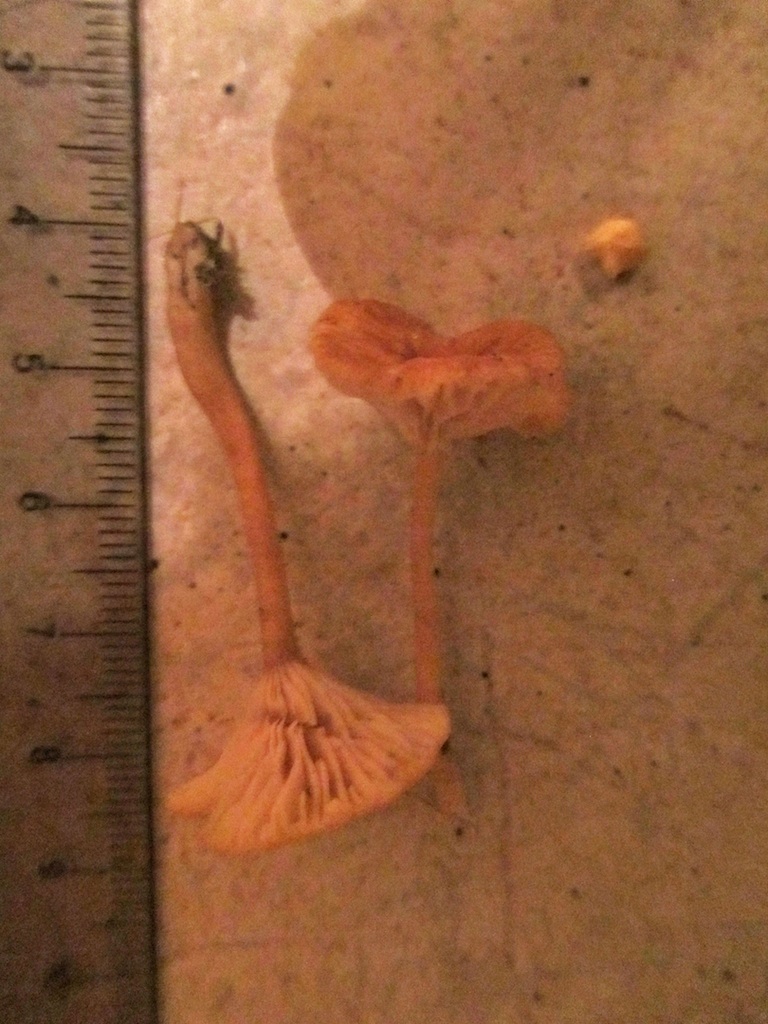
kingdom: Fungi
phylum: Basidiomycota
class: Agaricomycetes
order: Hymenochaetales
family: Rickenellaceae
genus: Loreleia
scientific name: Loreleia postii
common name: brandplet-mosnavlehat
